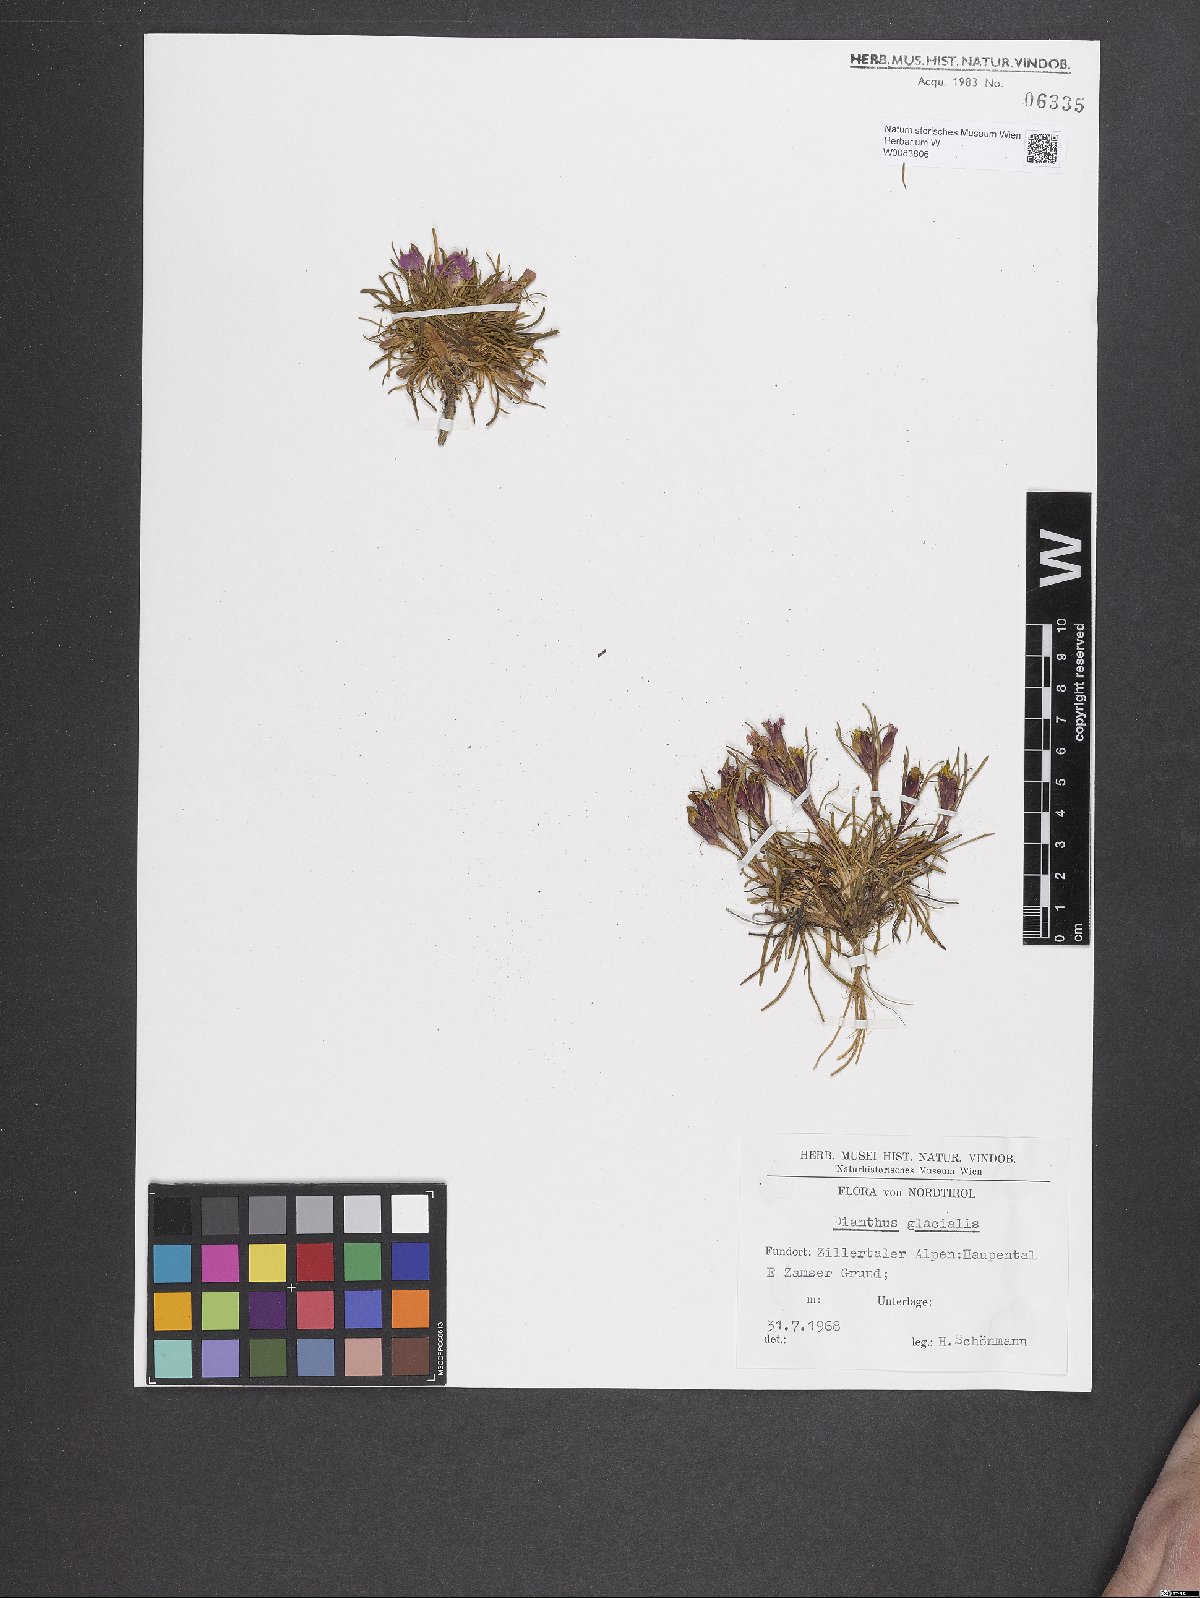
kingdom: Plantae
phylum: Tracheophyta
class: Magnoliopsida
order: Caryophyllales
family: Caryophyllaceae
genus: Dianthus
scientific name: Dianthus glacialis
